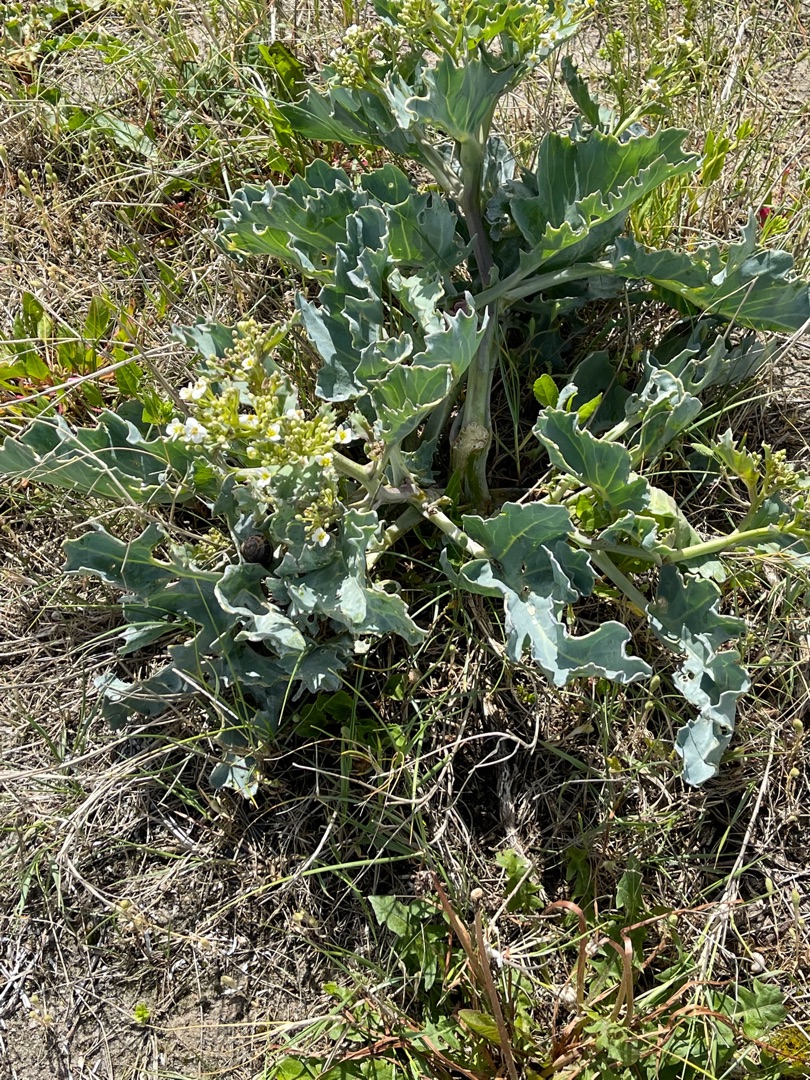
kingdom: Plantae
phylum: Tracheophyta
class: Magnoliopsida
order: Brassicales
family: Brassicaceae
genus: Crambe
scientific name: Crambe maritima
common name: Strandkål
